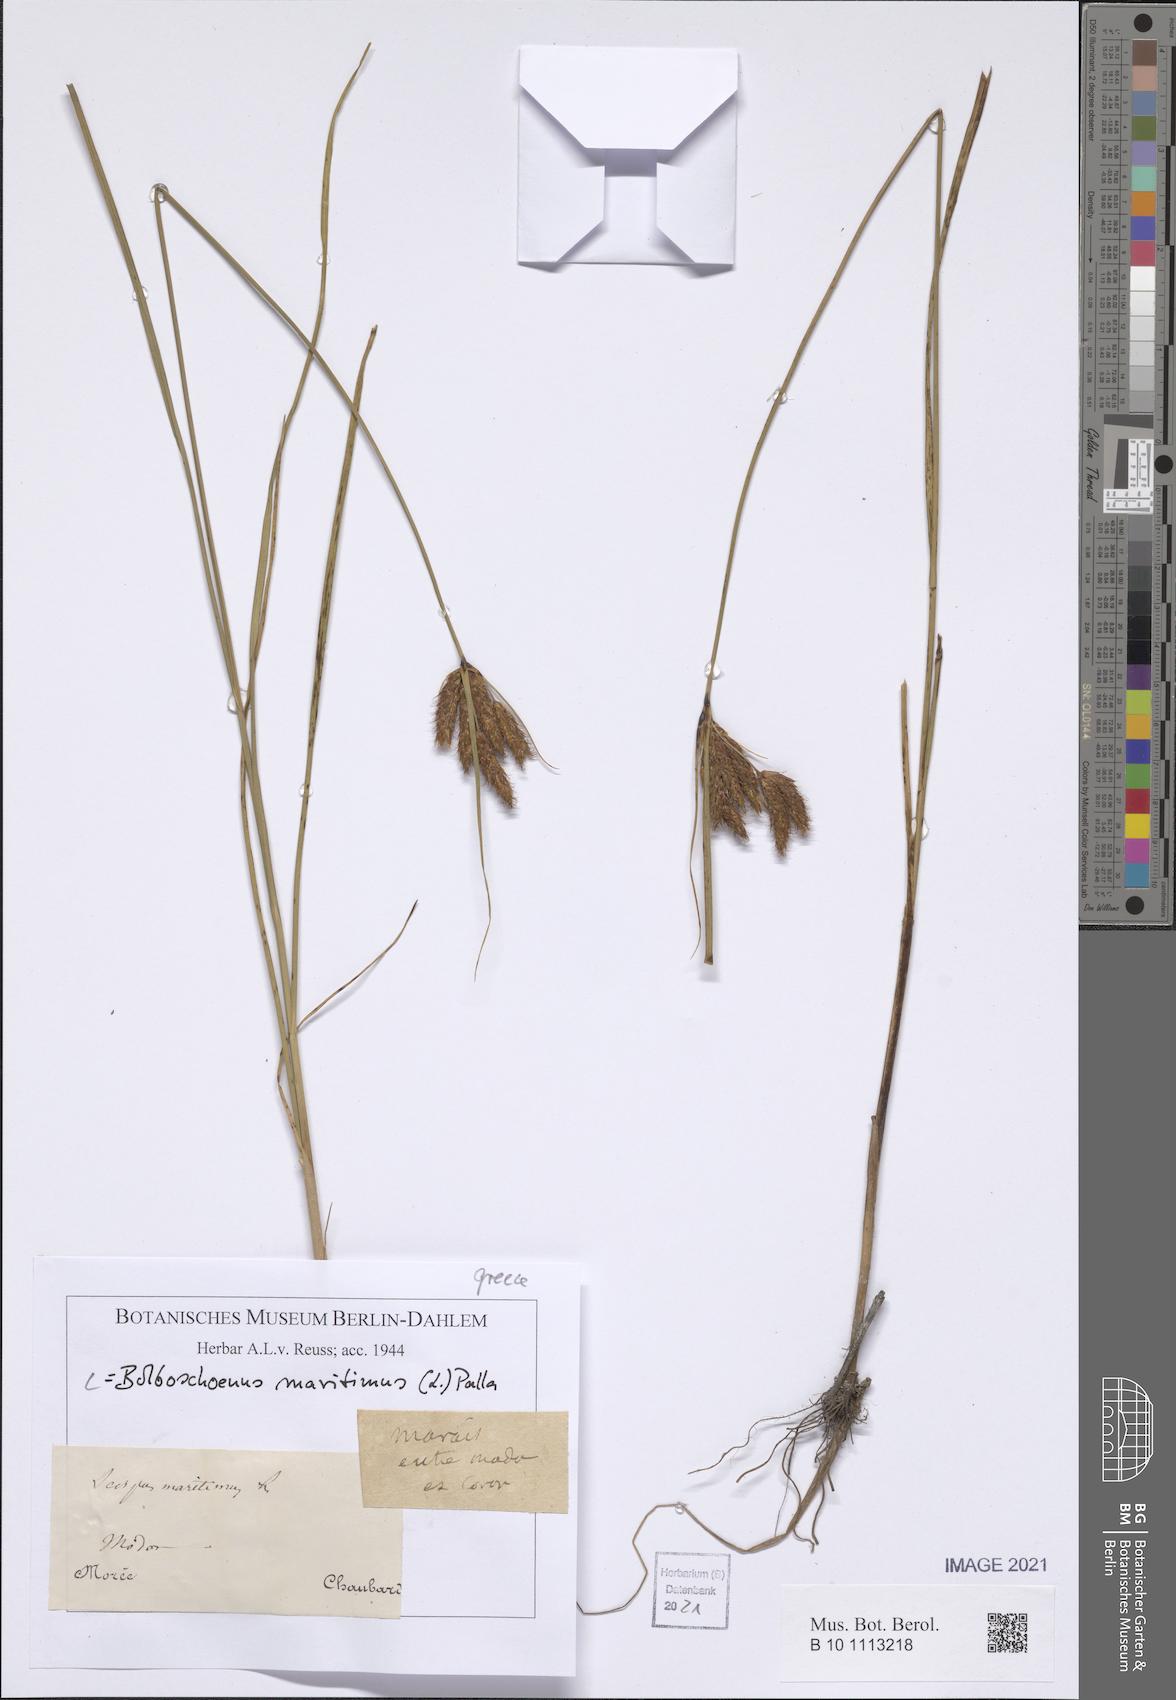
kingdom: Plantae
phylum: Tracheophyta
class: Liliopsida
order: Poales
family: Cyperaceae
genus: Bolboschoenus
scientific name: Bolboschoenus maritimus
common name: Sea club-rush
